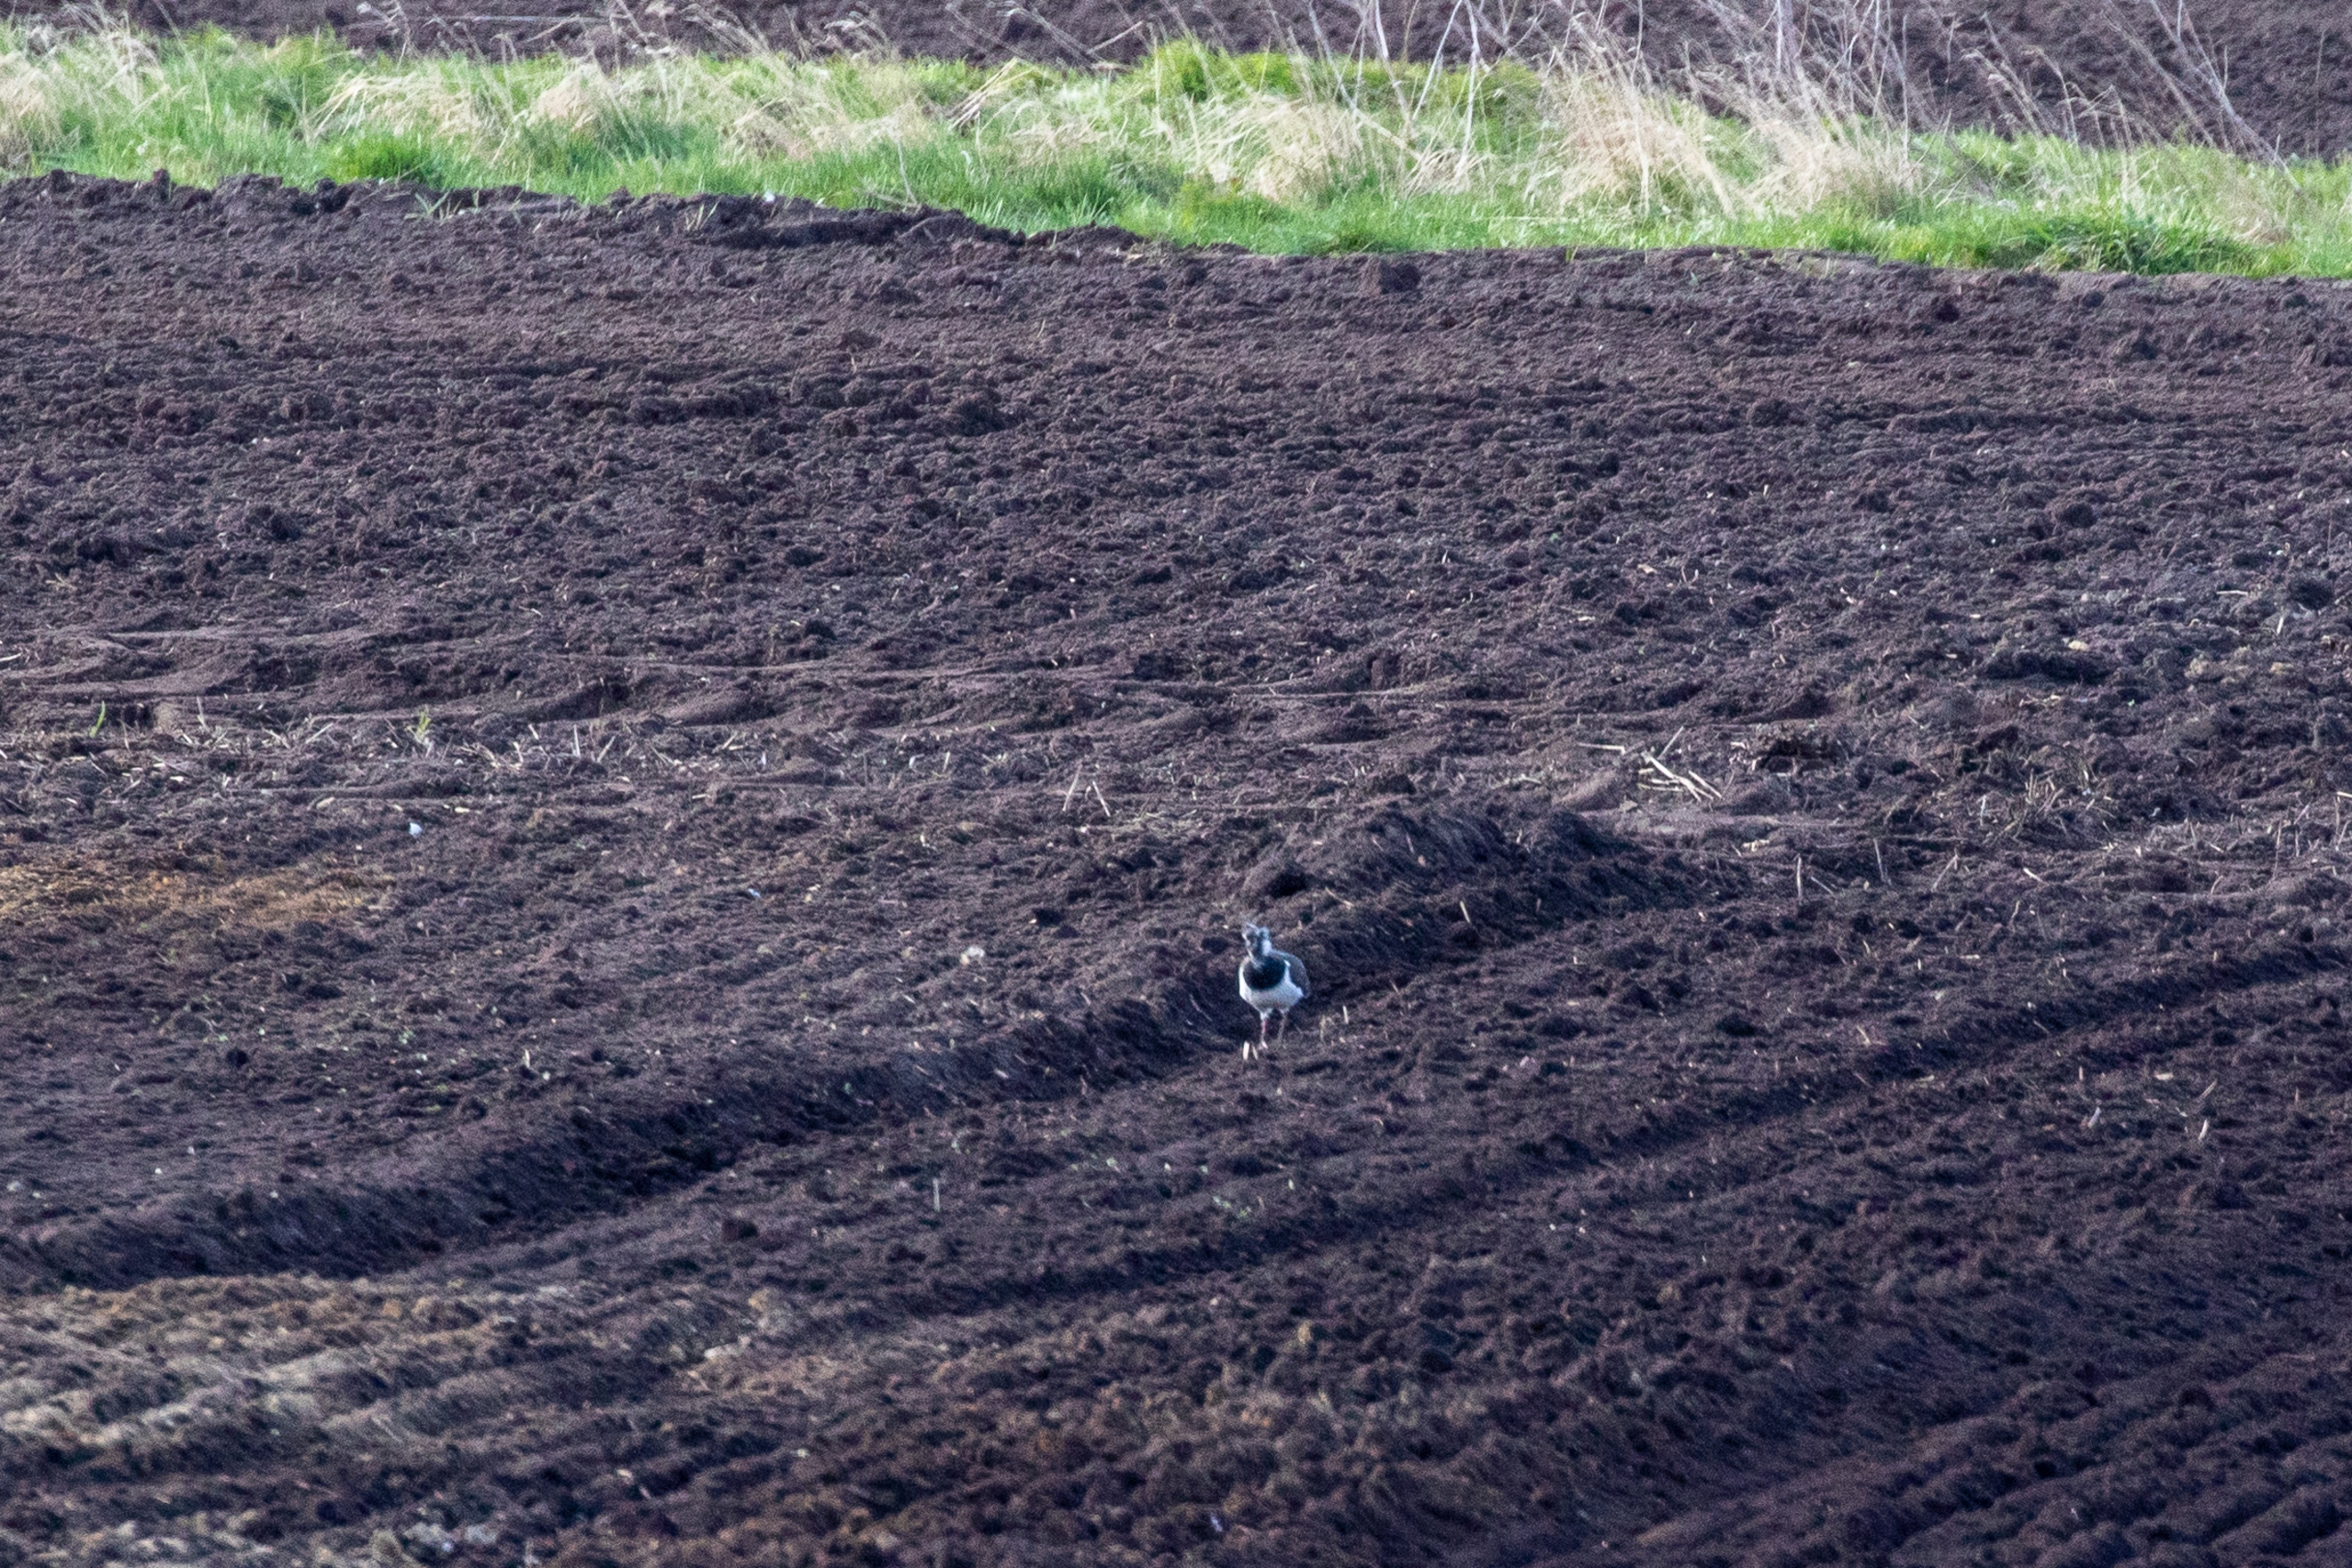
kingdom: Animalia
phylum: Chordata
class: Aves
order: Charadriiformes
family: Charadriidae
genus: Vanellus
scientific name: Vanellus vanellus
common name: Vibe
